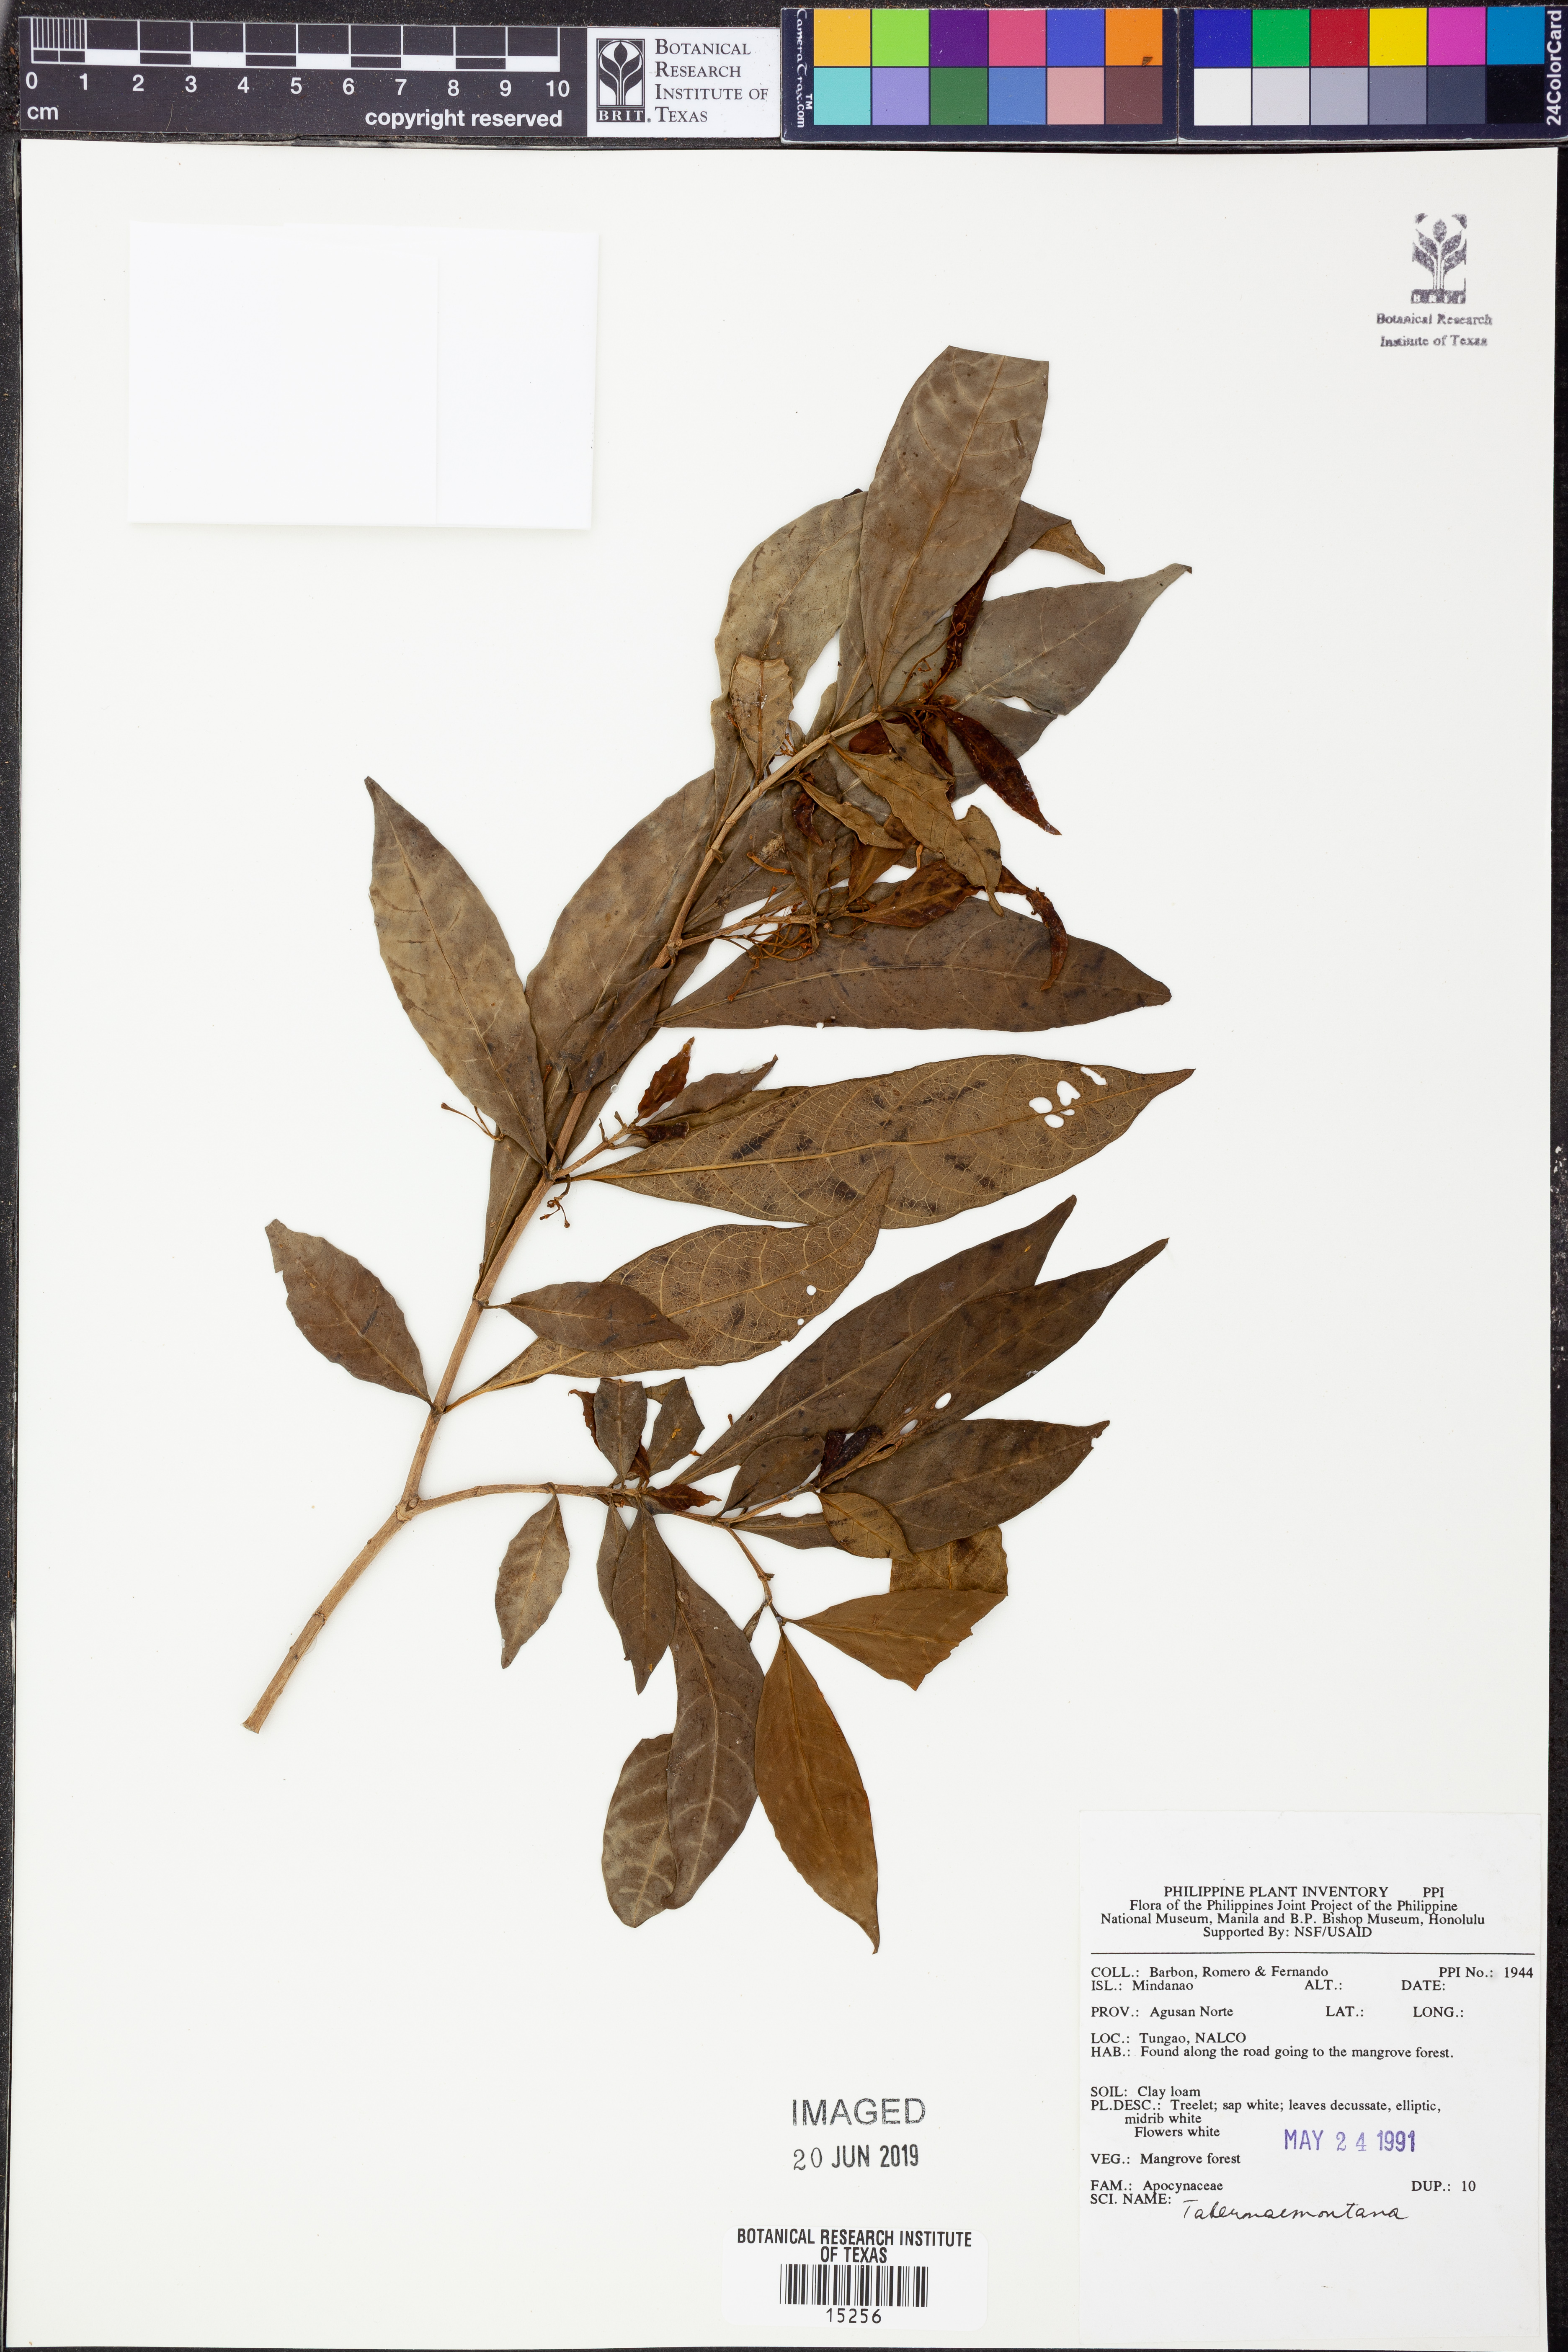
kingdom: Plantae
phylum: Tracheophyta
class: Magnoliopsida
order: Gentianales
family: Apocynaceae
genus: Tabernaemontana
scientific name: Tabernaemontana
